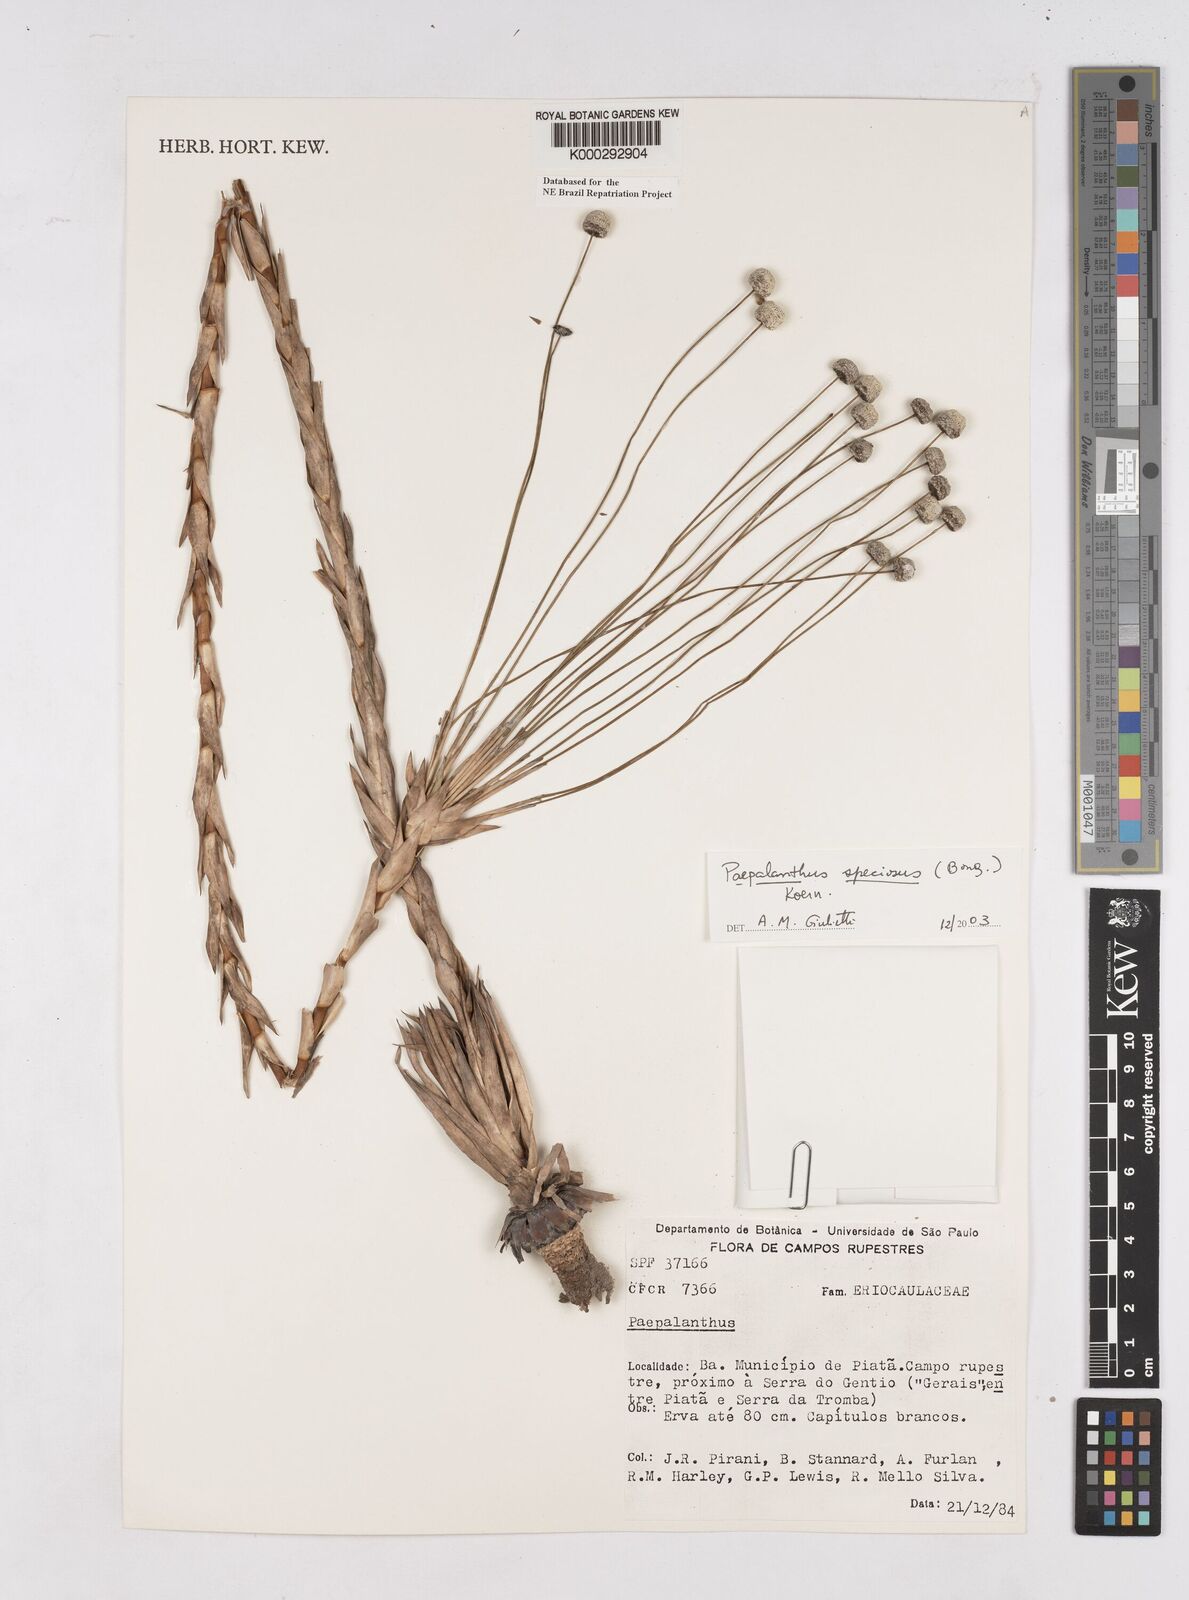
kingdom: Plantae
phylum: Tracheophyta
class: Liliopsida
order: Poales
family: Eriocaulaceae
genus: Paepalanthus
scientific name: Paepalanthus
